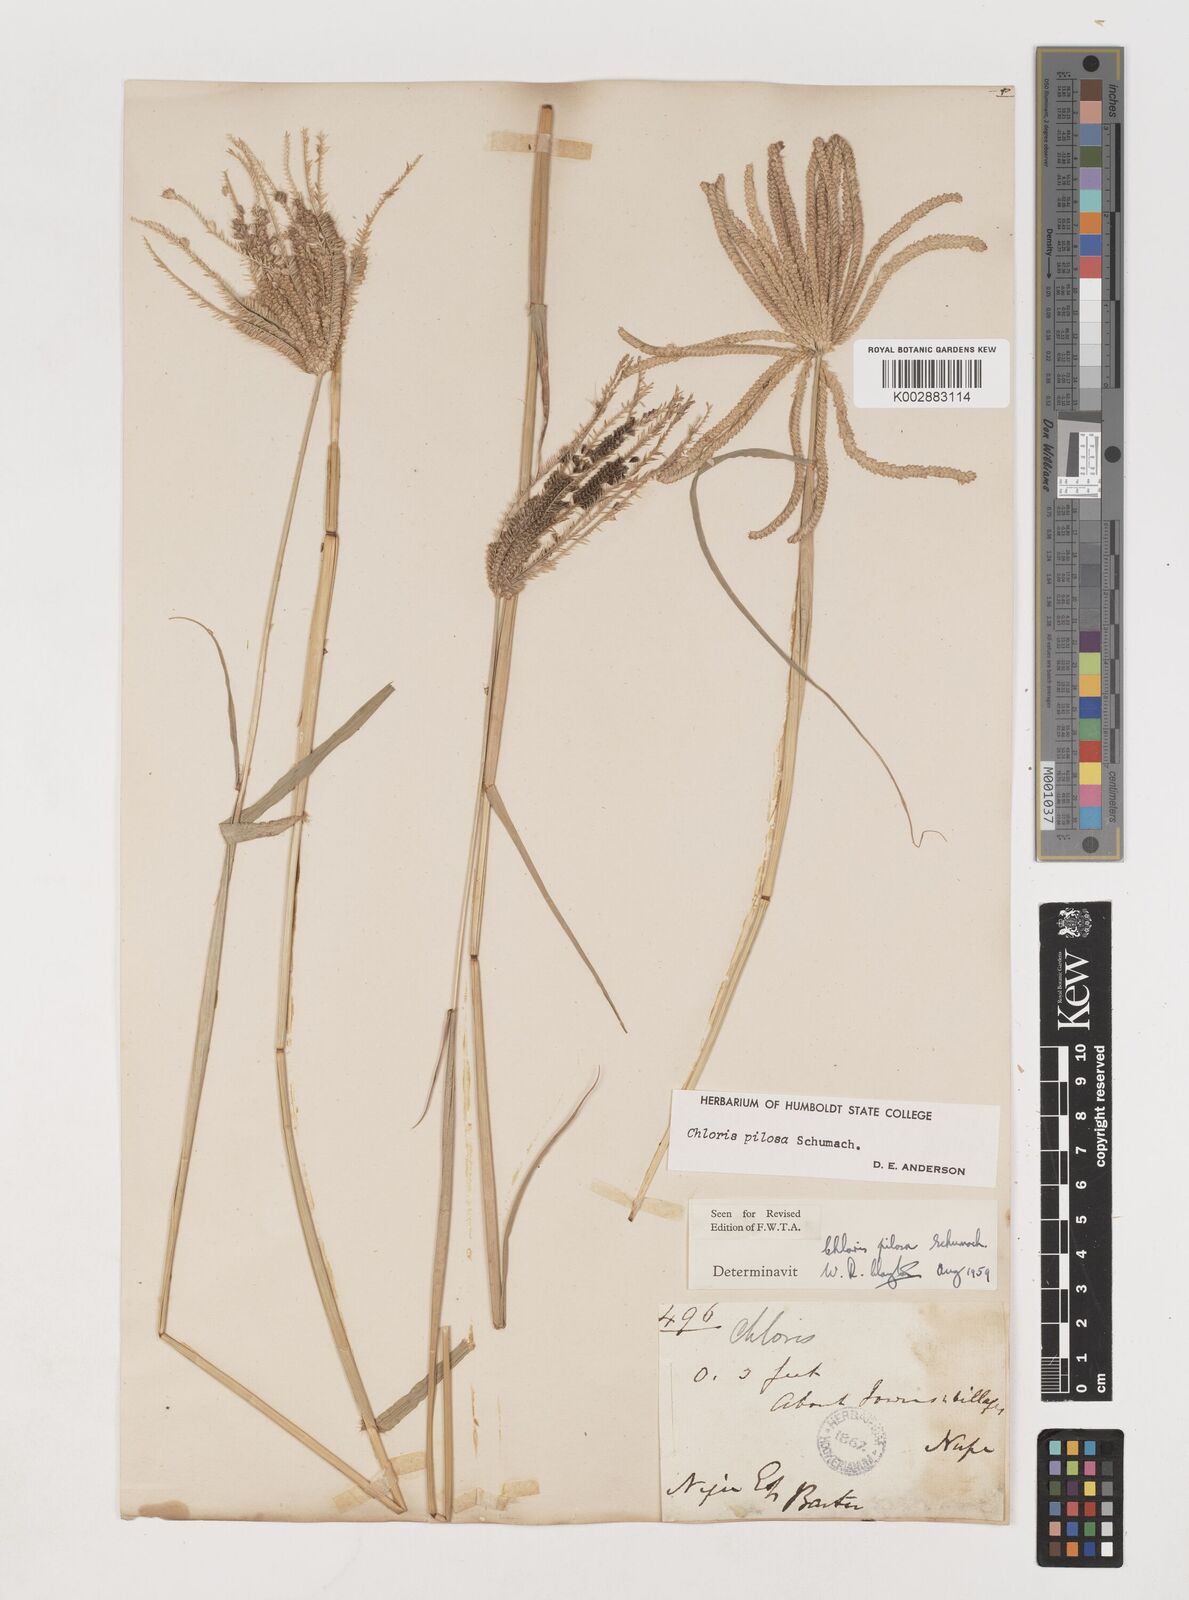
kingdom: Plantae
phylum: Tracheophyta
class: Liliopsida
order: Poales
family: Poaceae
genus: Chloris
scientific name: Chloris pilosa
